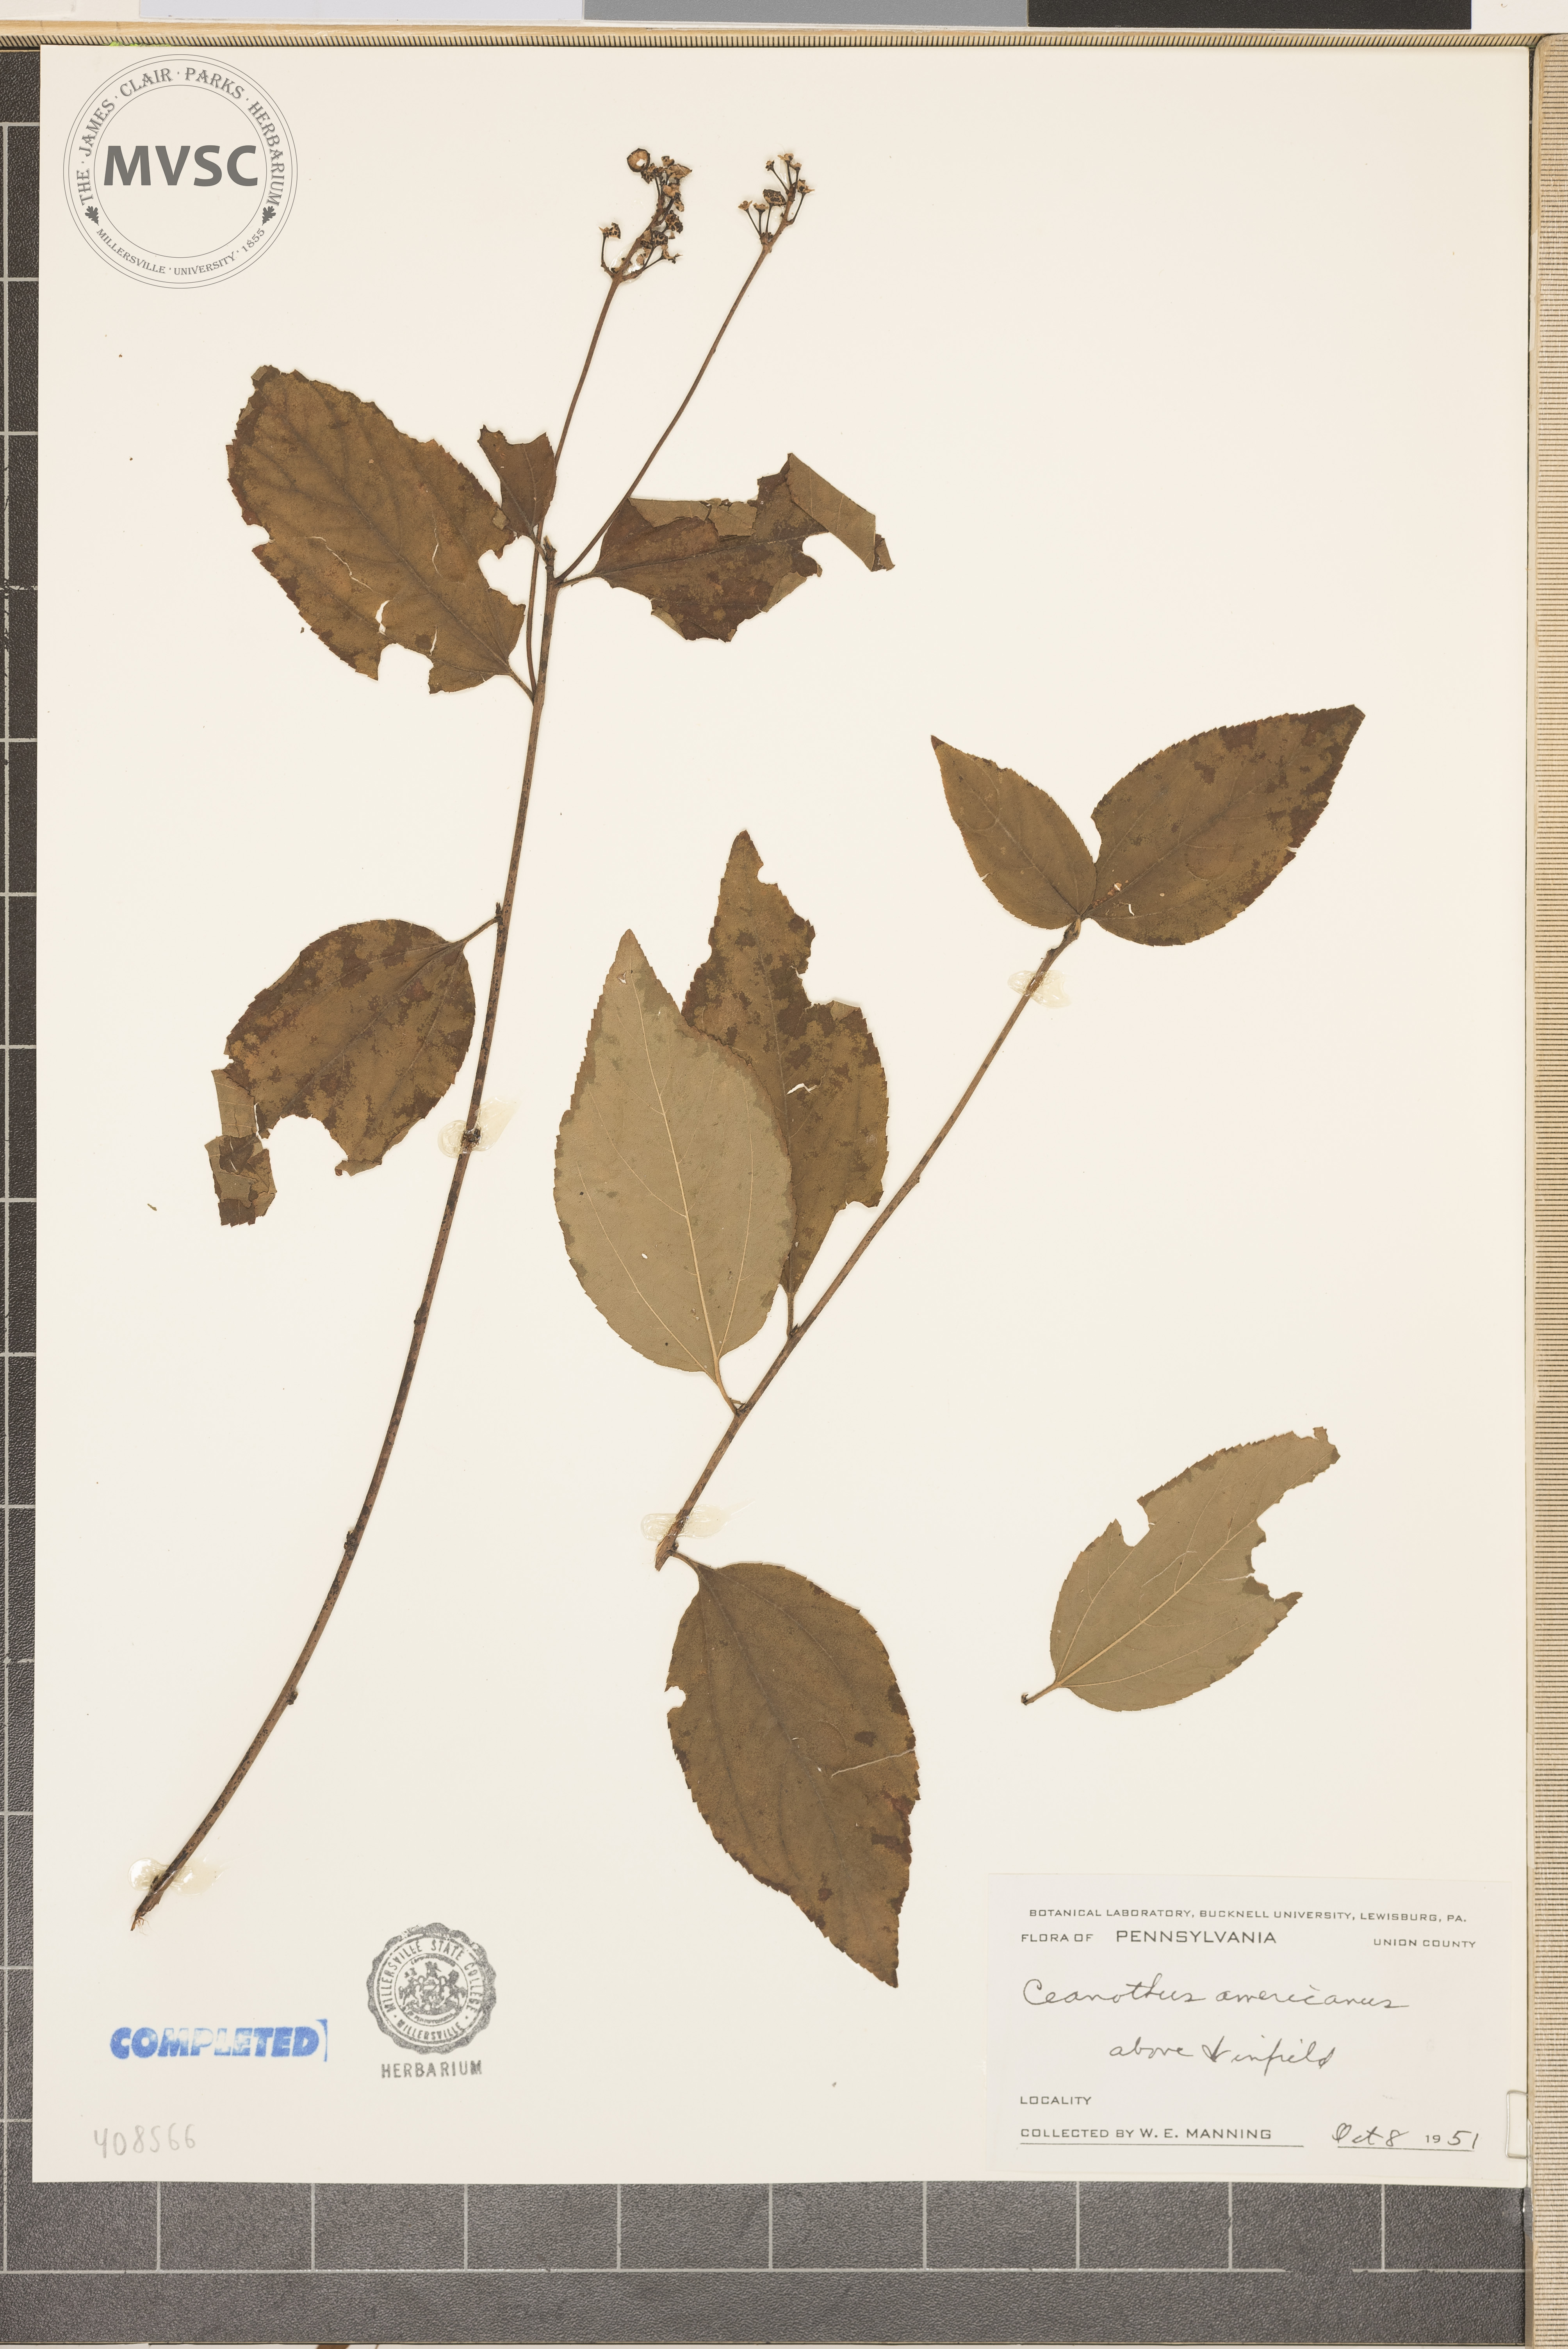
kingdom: Plantae
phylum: Tracheophyta
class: Magnoliopsida
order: Rosales
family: Rhamnaceae
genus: Ceanothus
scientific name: Ceanothus americanus
